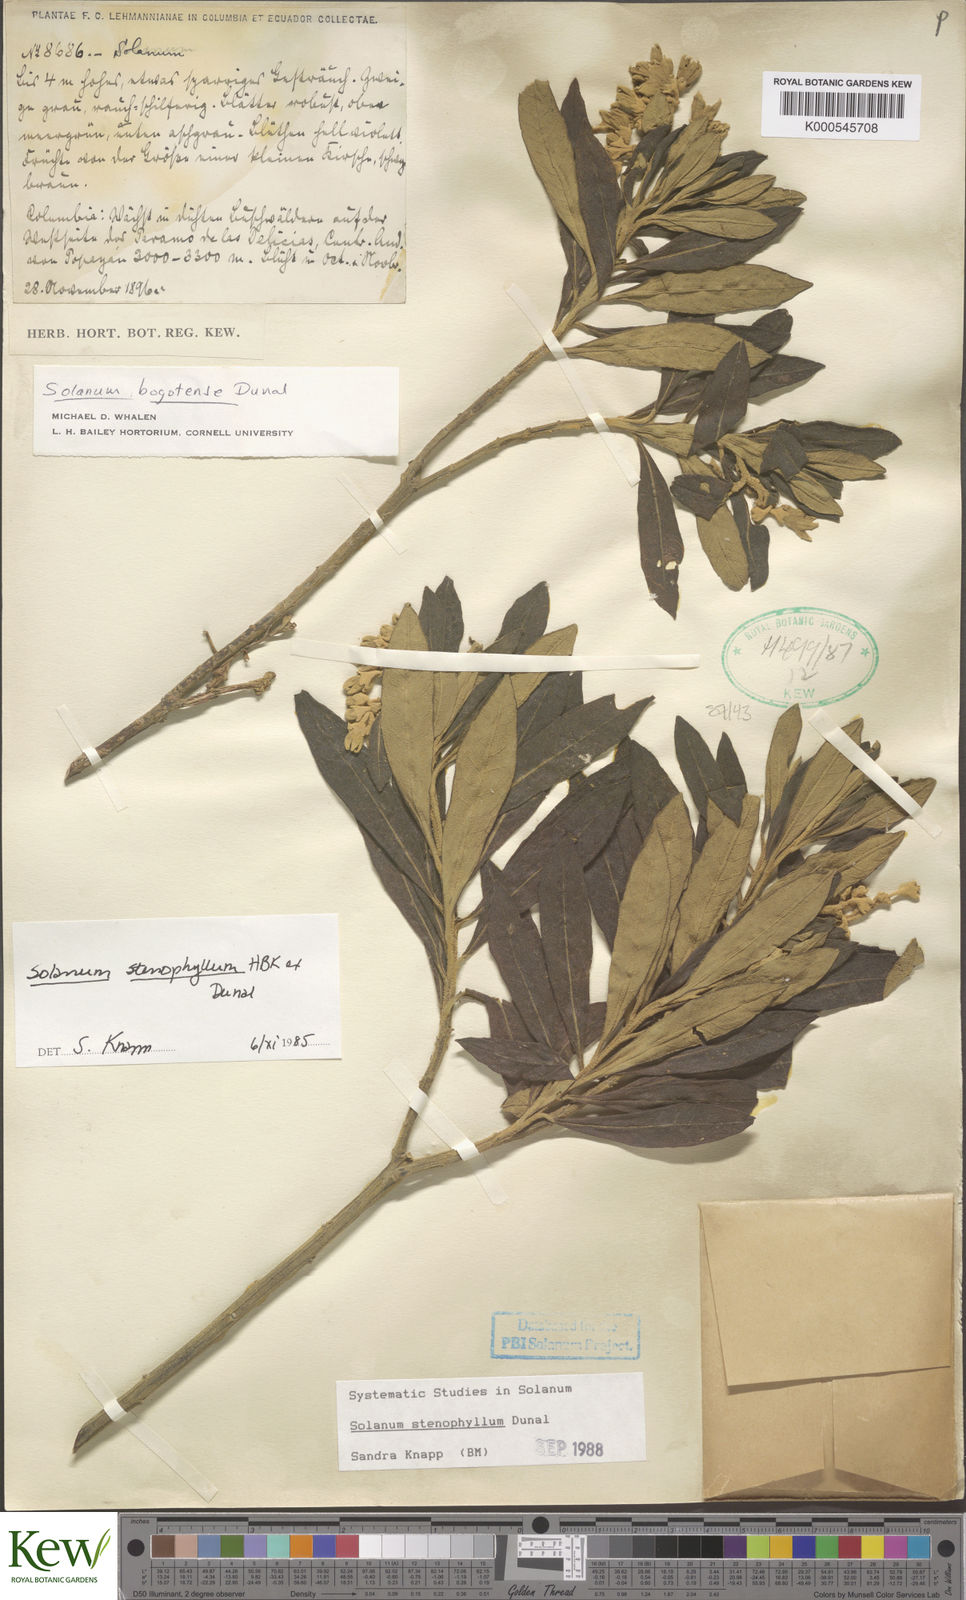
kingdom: Plantae
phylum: Tracheophyta
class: Magnoliopsida
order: Solanales
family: Solanaceae
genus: Solanum
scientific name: Solanum stenophyllum
